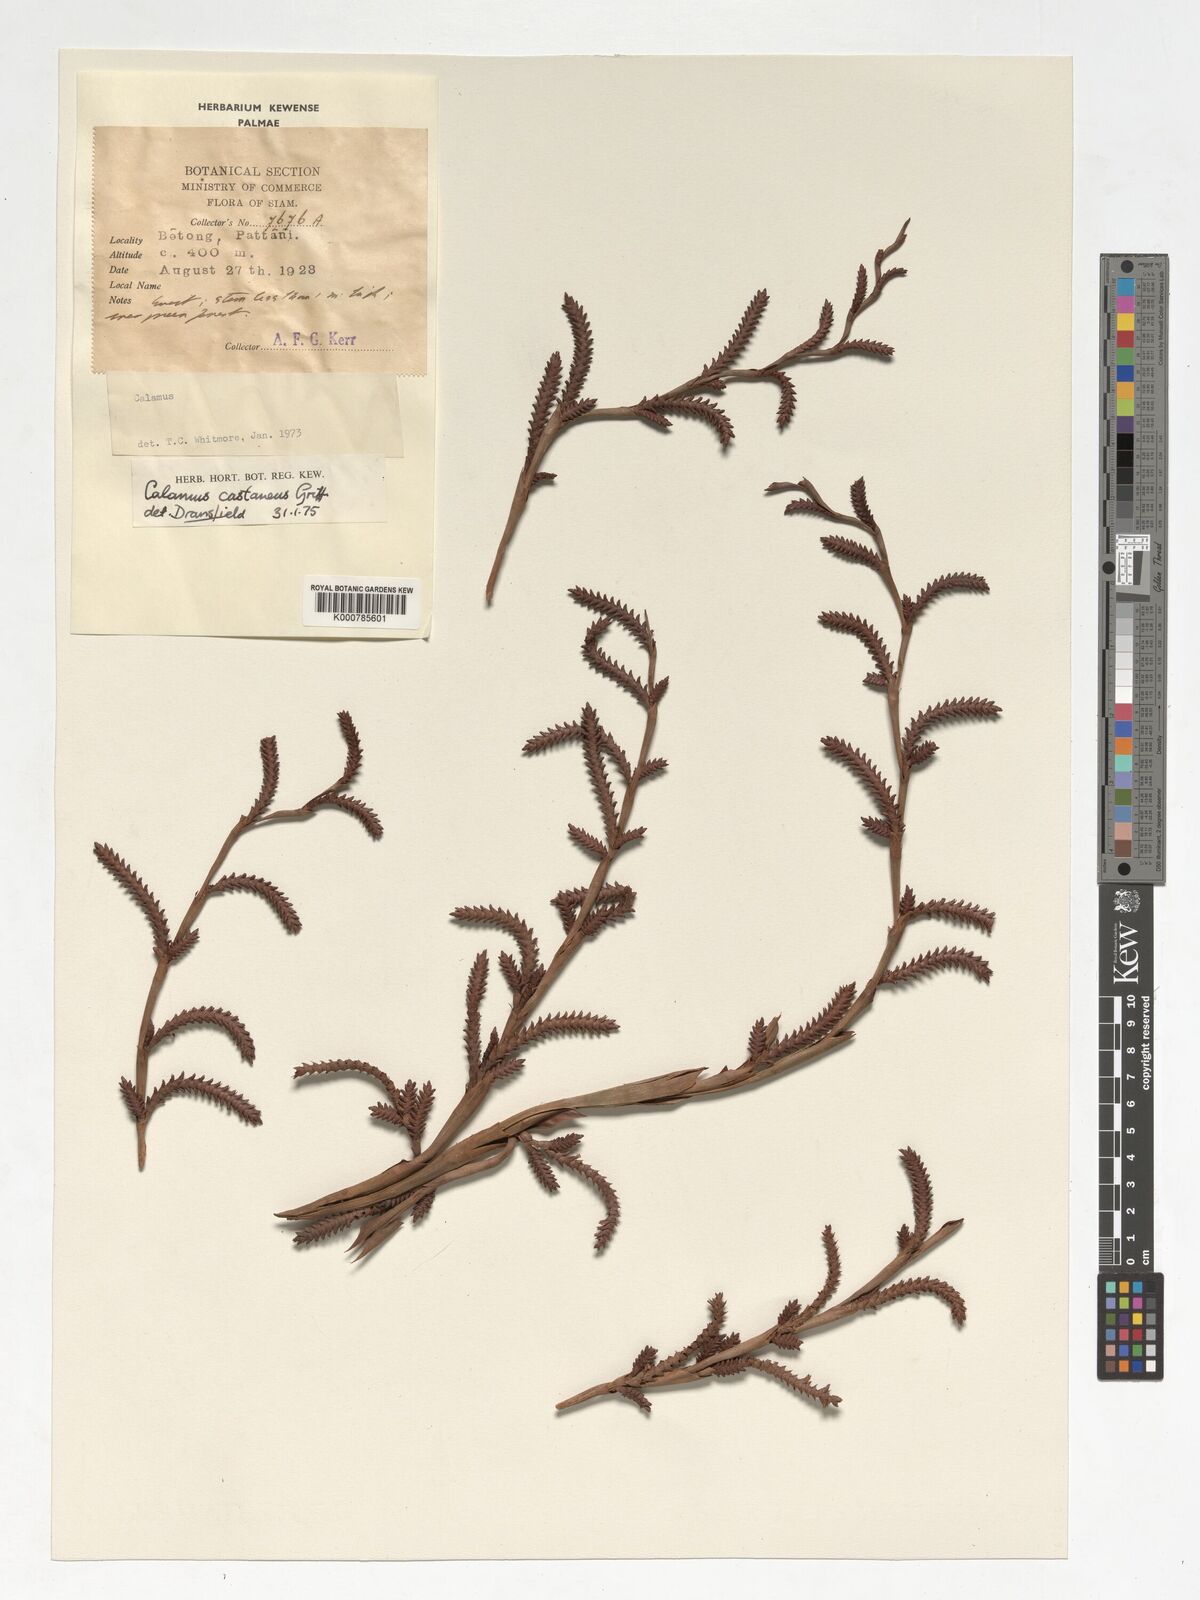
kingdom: Plantae
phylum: Tracheophyta
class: Liliopsida
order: Arecales
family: Arecaceae
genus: Calamus
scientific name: Calamus castaneus
